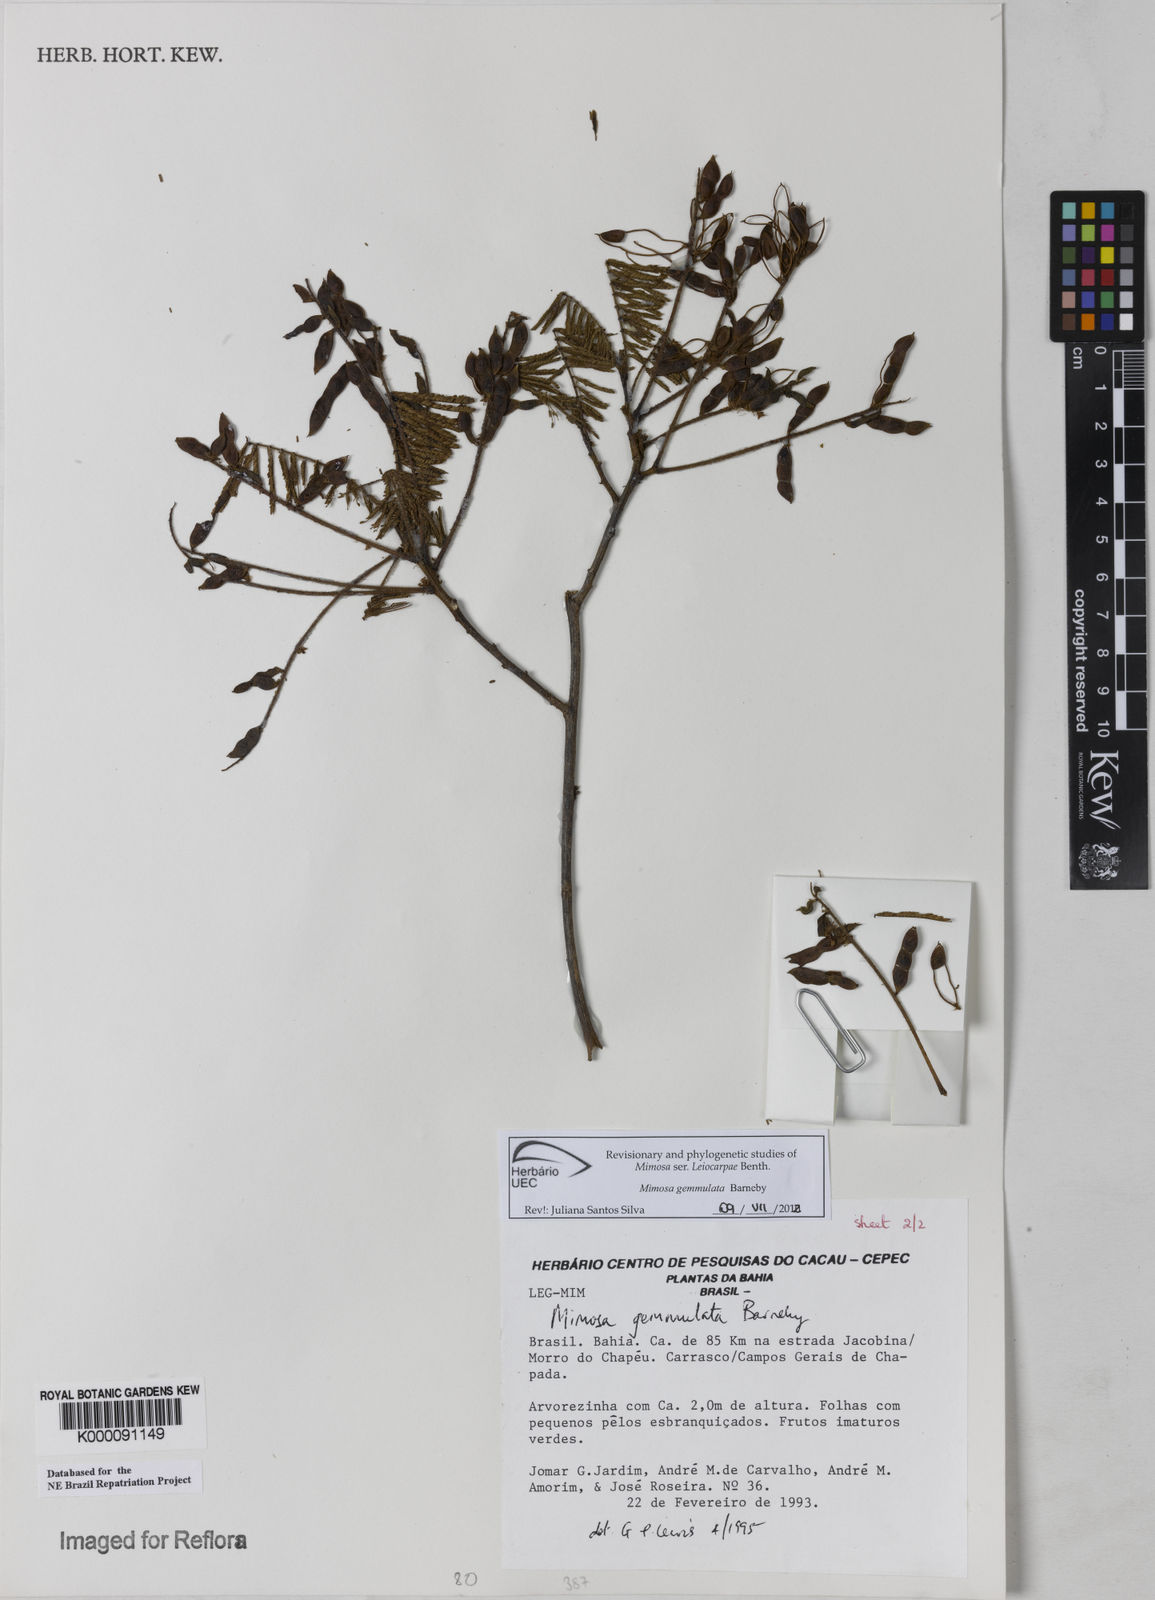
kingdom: Plantae
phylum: Tracheophyta
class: Magnoliopsida
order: Fabales
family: Fabaceae
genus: Mimosa
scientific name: Mimosa gemmulata
